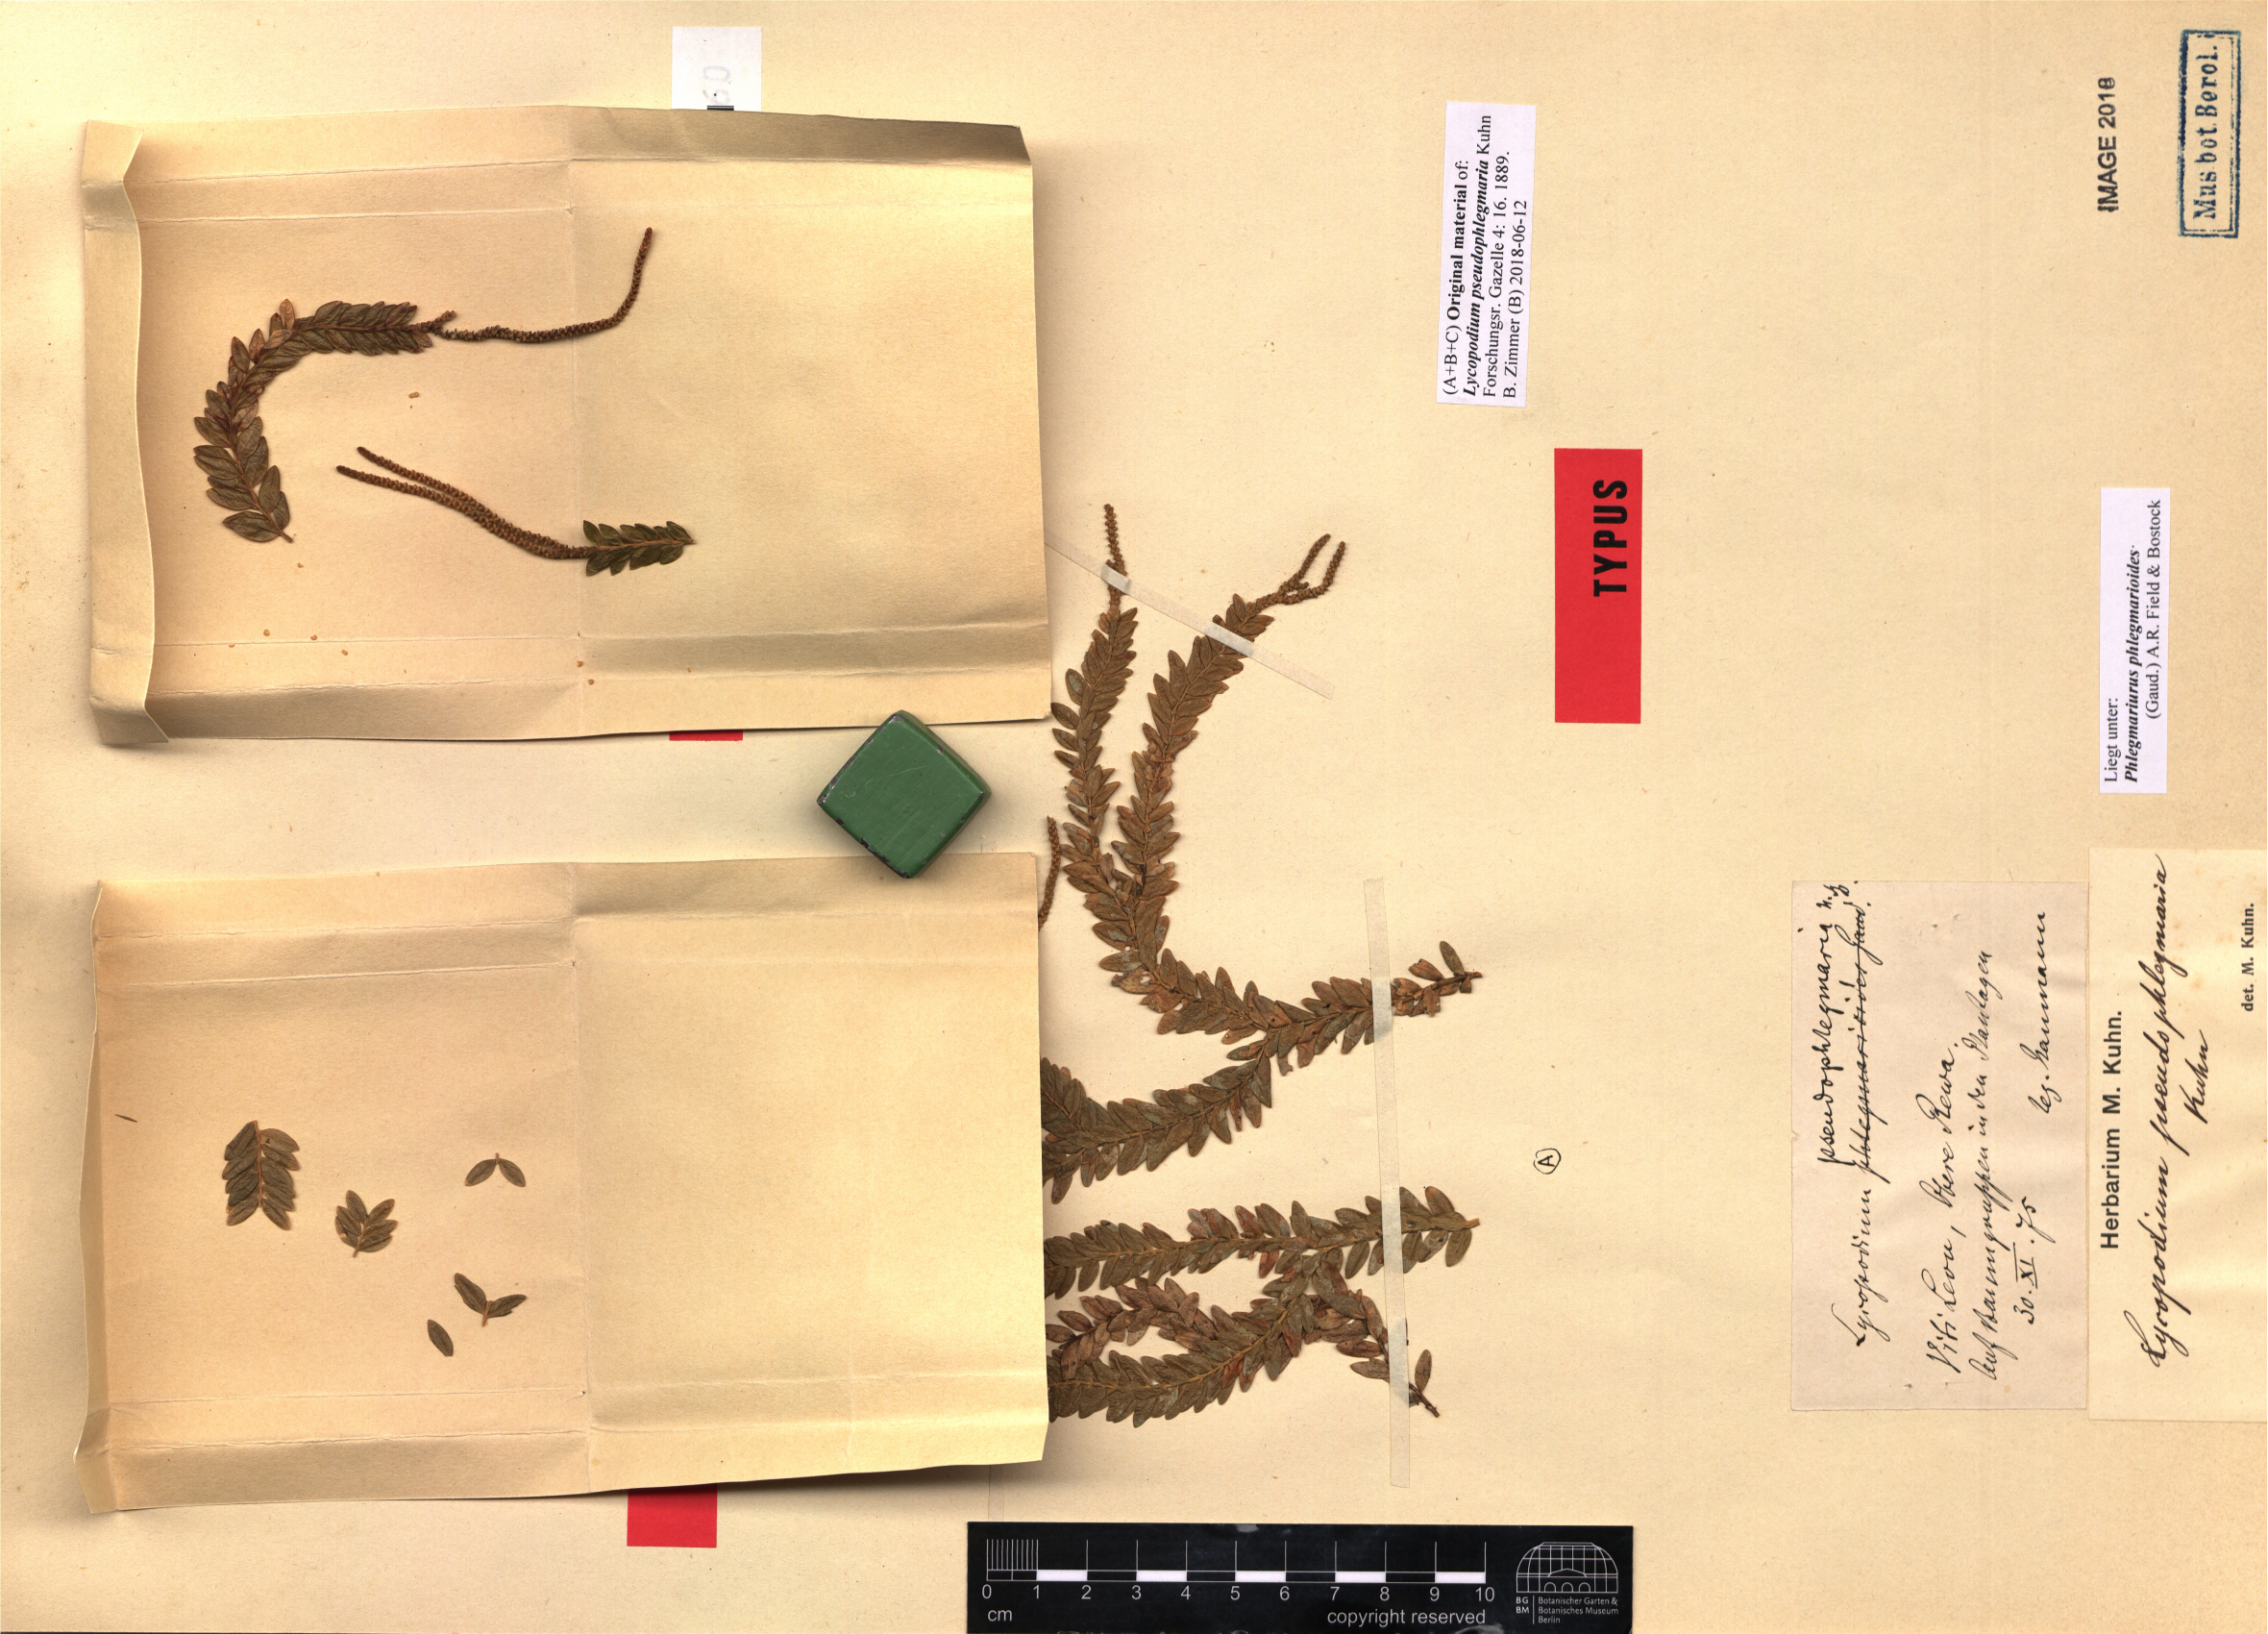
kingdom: Plantae
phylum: Tracheophyta
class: Lycopodiopsida
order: Lycopodiales
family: Lycopodiaceae
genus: Phlegmariurus
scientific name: Phlegmariurus phlegmarioides
